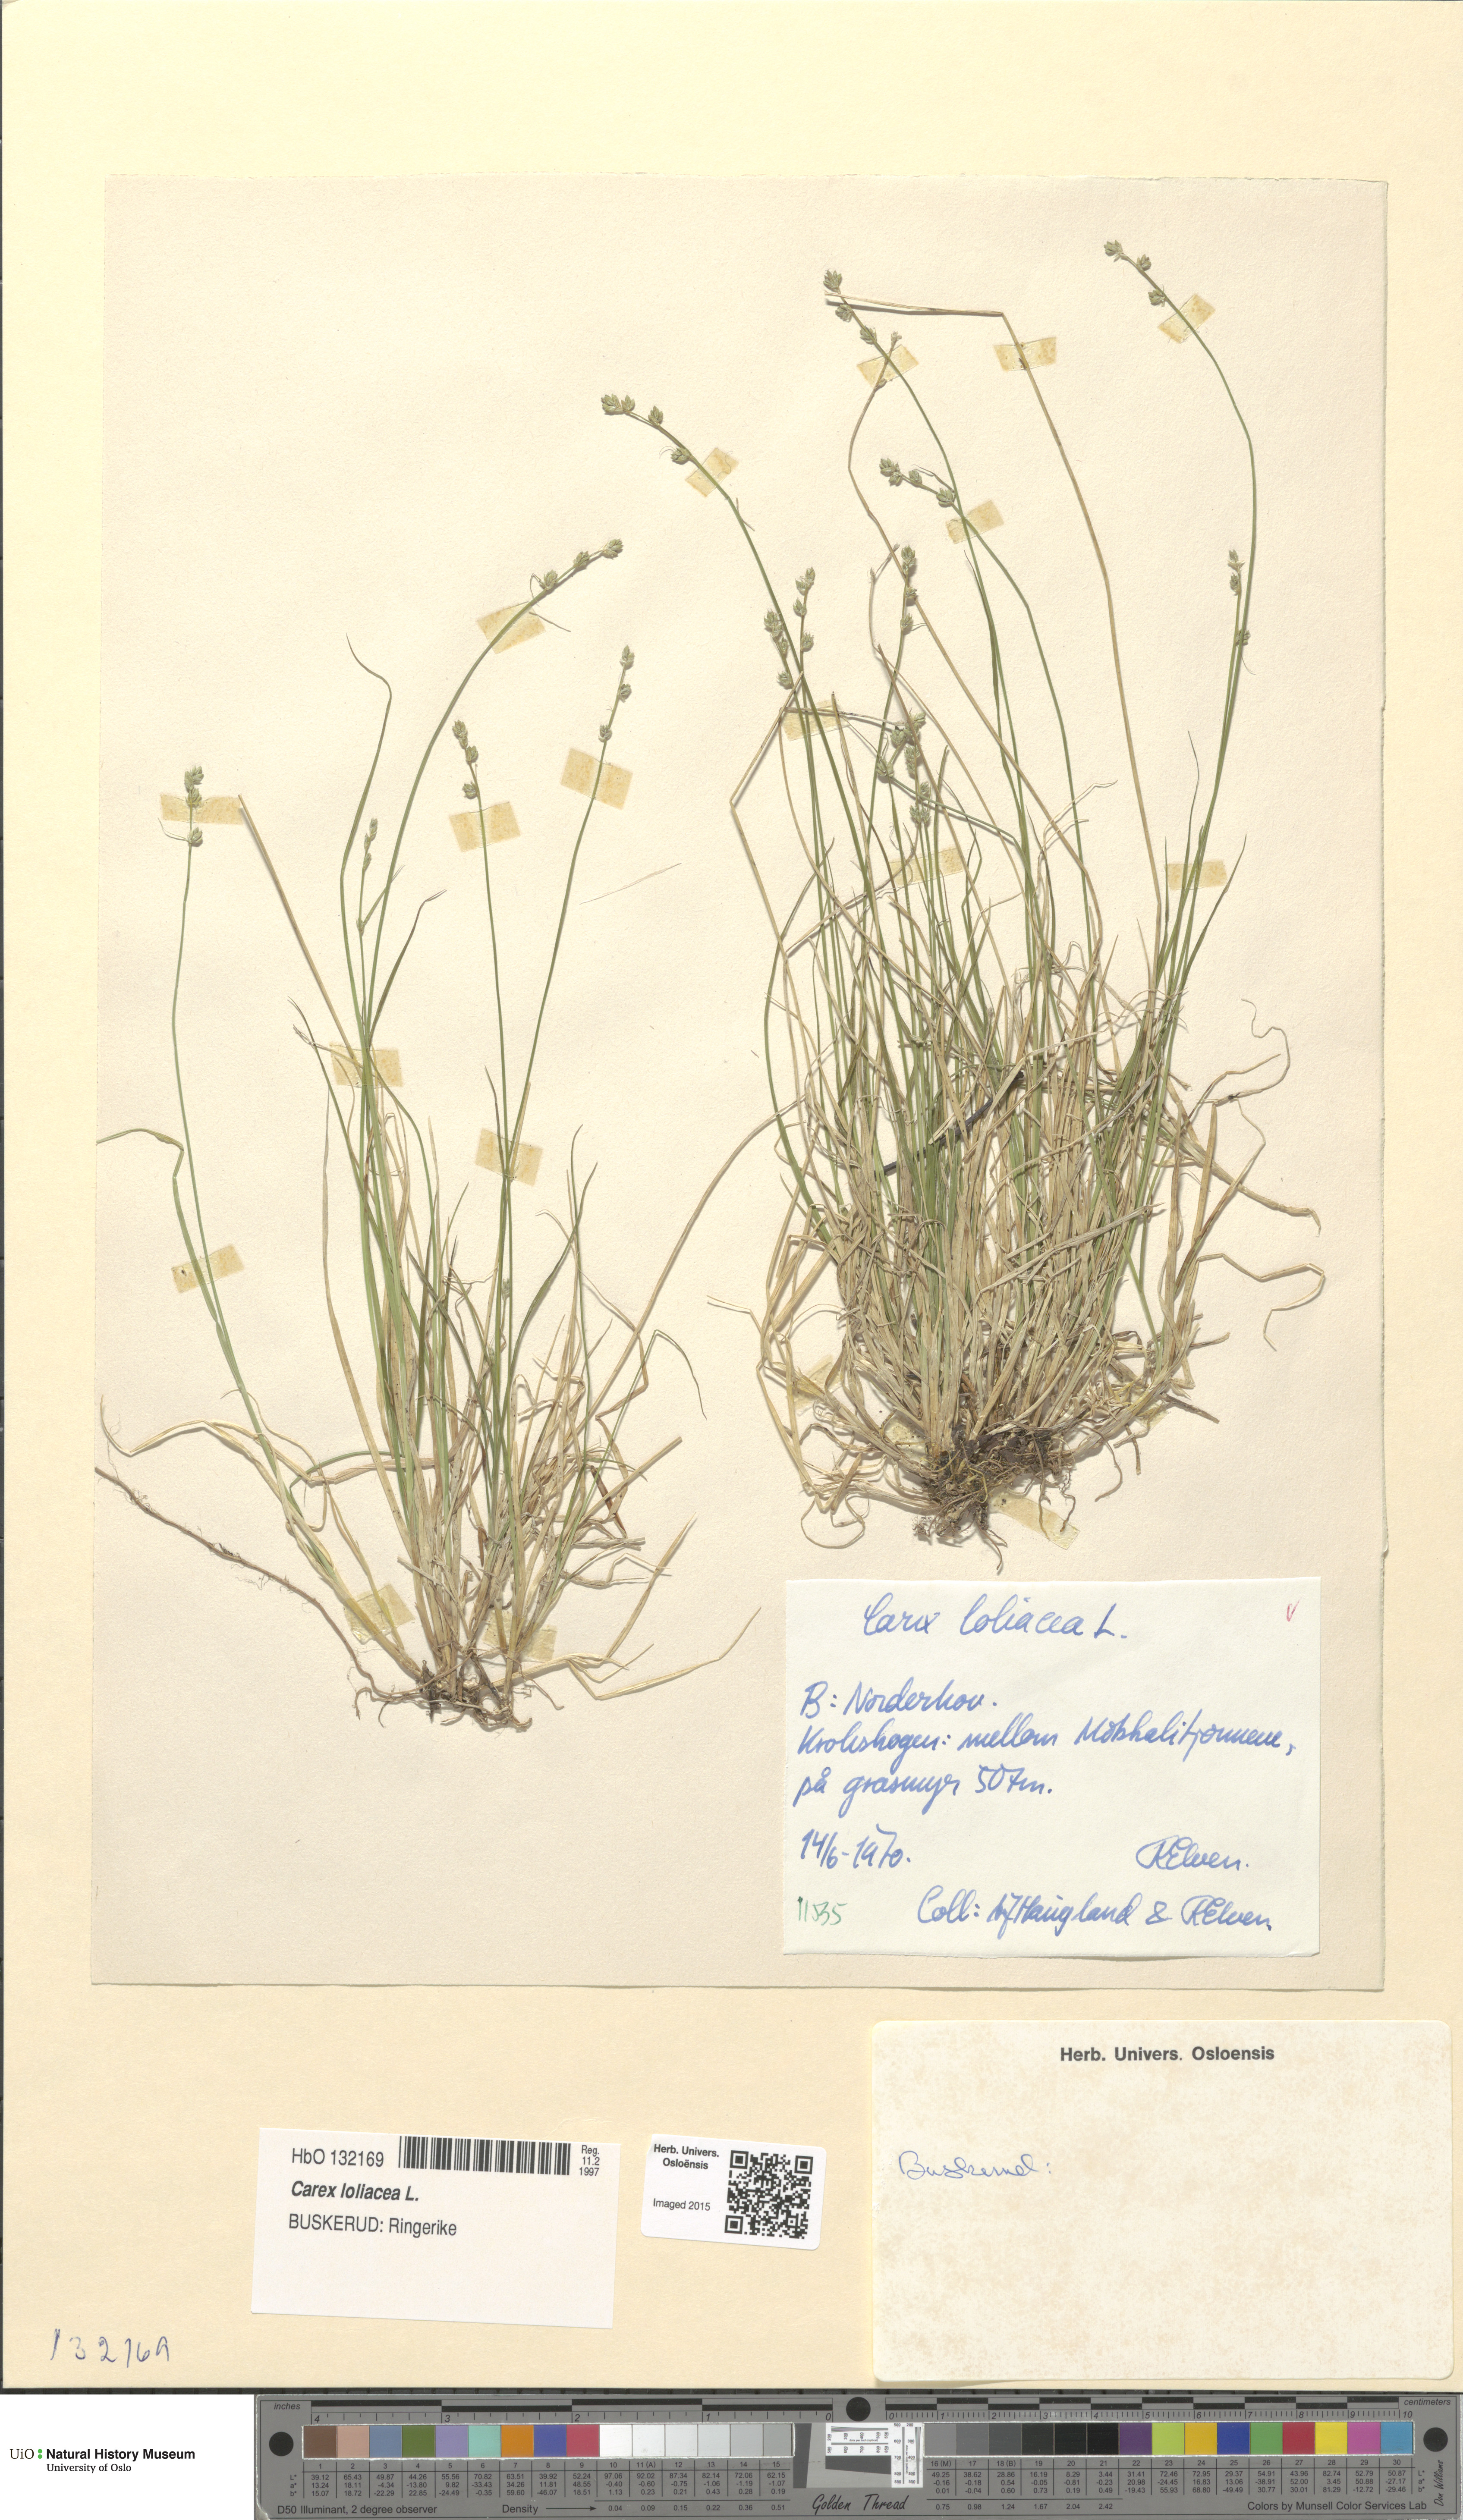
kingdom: Plantae
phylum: Tracheophyta
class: Liliopsida
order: Poales
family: Cyperaceae
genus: Carex
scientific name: Carex loliacea
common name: Ryegrass sedge
